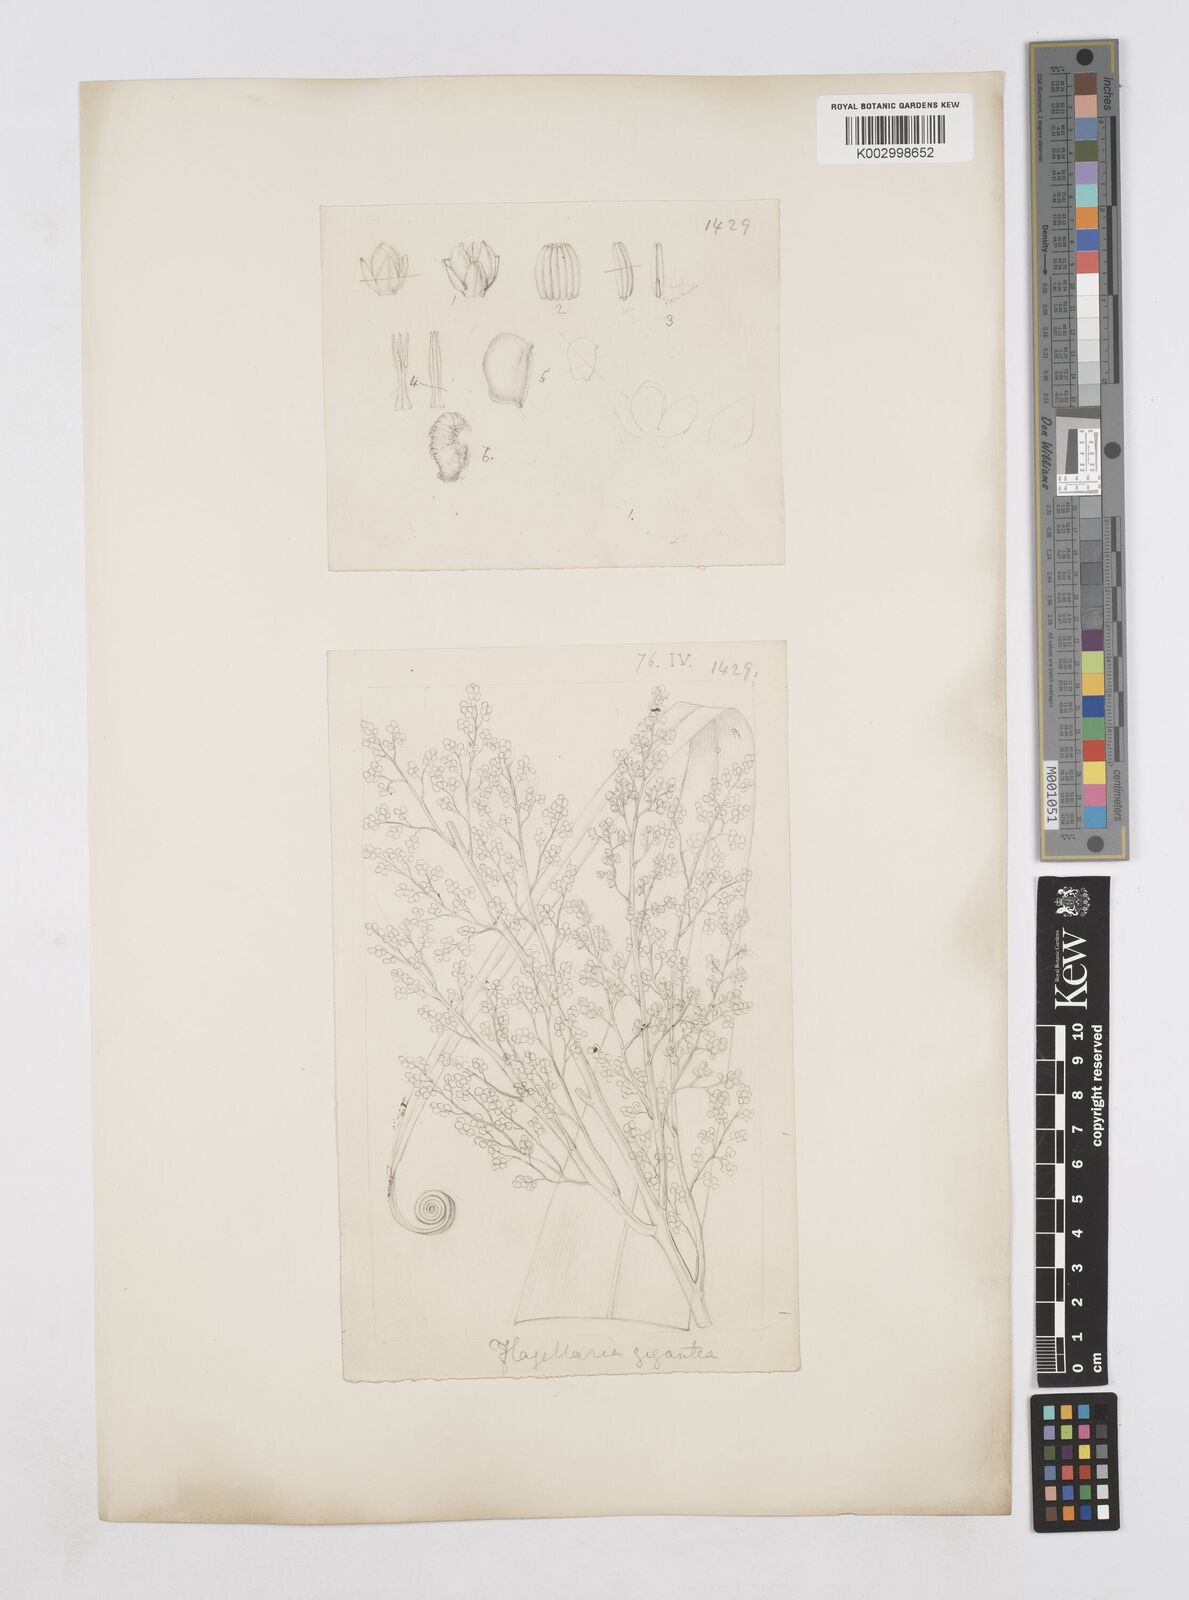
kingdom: Plantae
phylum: Tracheophyta
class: Liliopsida
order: Poales
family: Flagellariaceae
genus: Flagellaria
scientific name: Flagellaria gigantea
